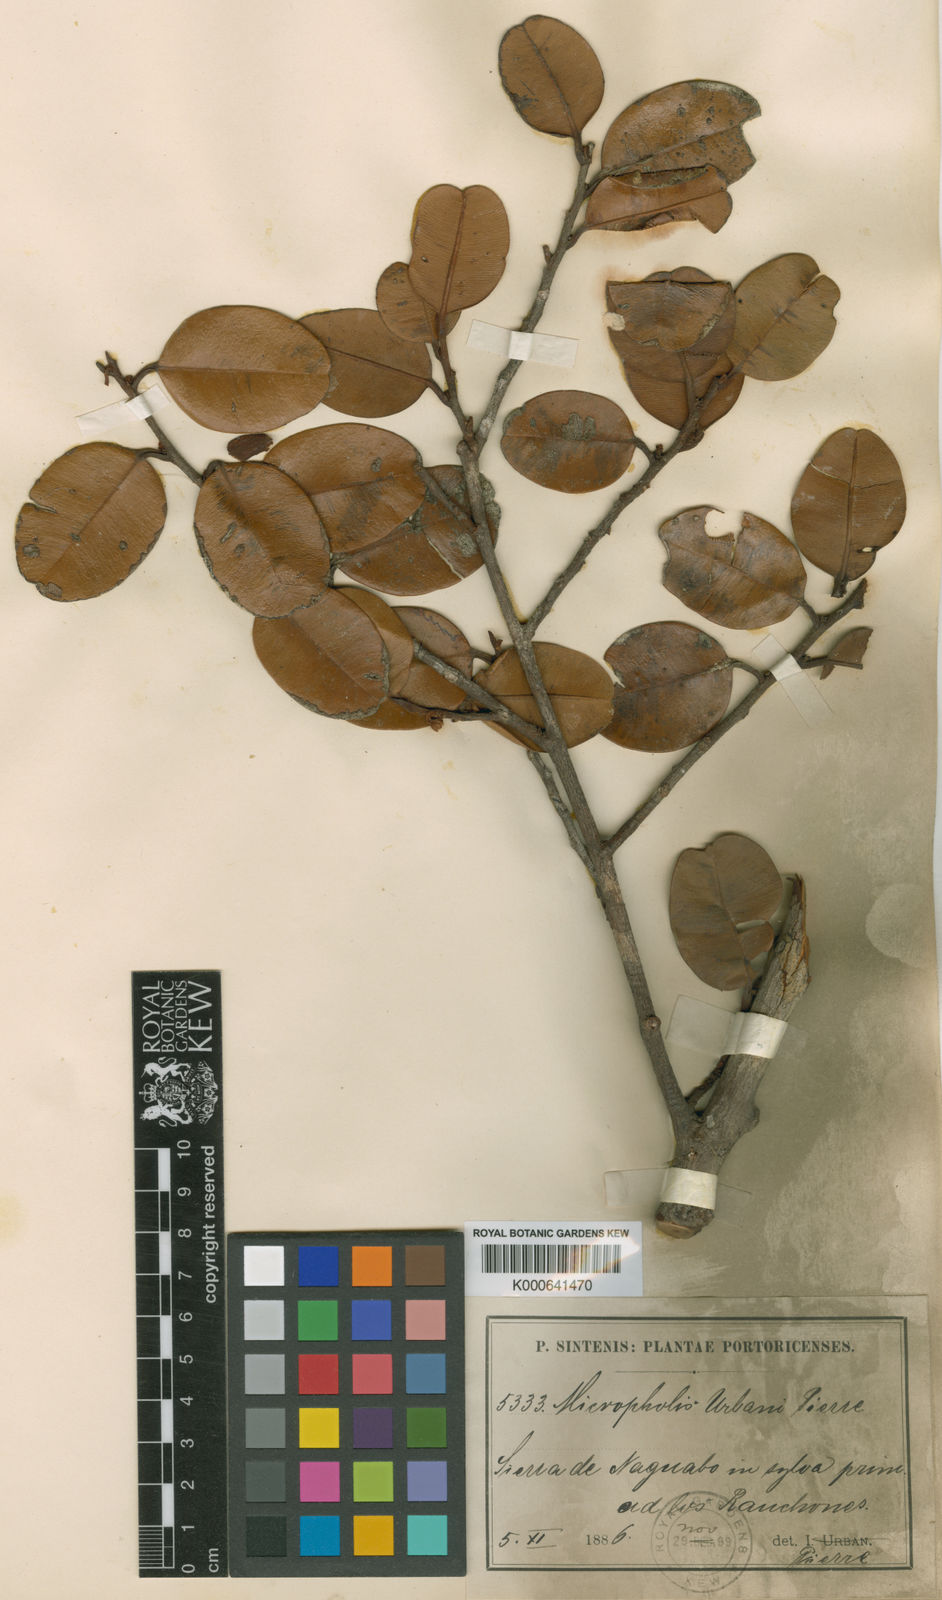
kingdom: Plantae
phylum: Tracheophyta
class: Magnoliopsida
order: Ericales
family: Sapotaceae
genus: Micropholis
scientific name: Micropholis garciniifolia
